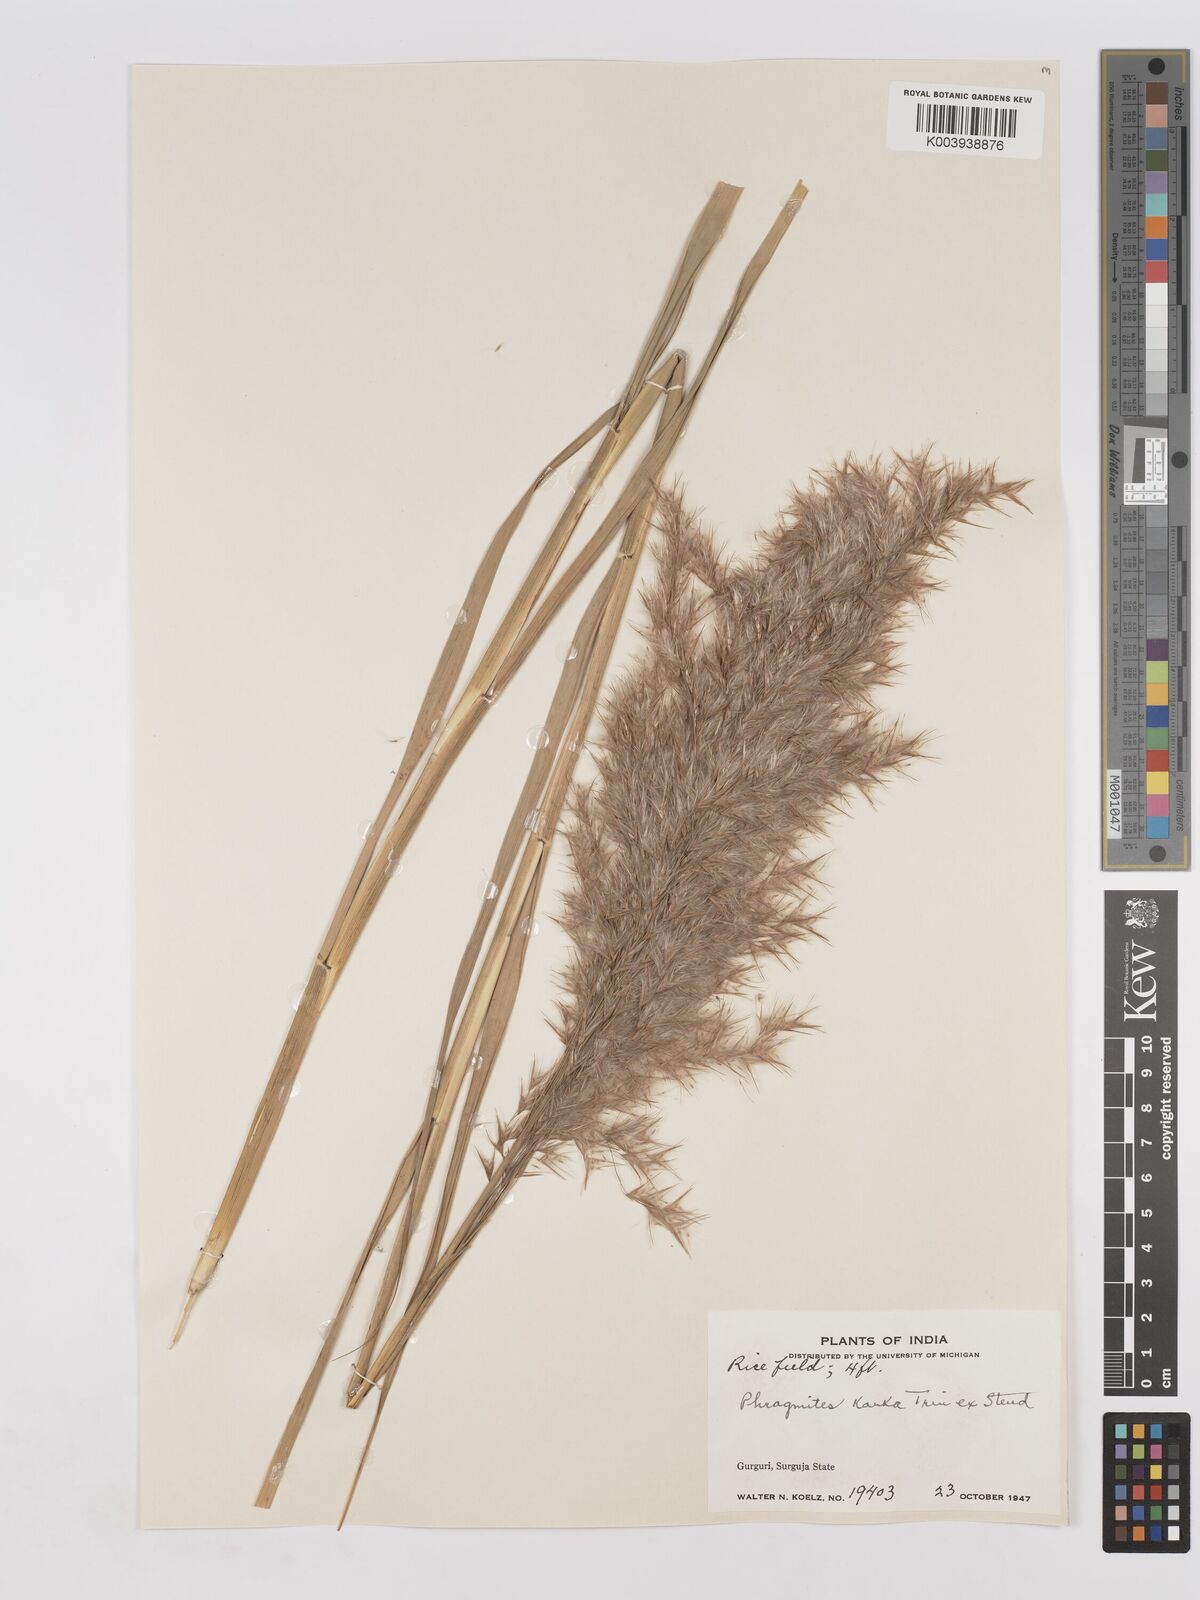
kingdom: Plantae
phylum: Tracheophyta
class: Liliopsida
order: Poales
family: Poaceae
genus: Phragmites
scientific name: Phragmites karka
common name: Tropical reed
